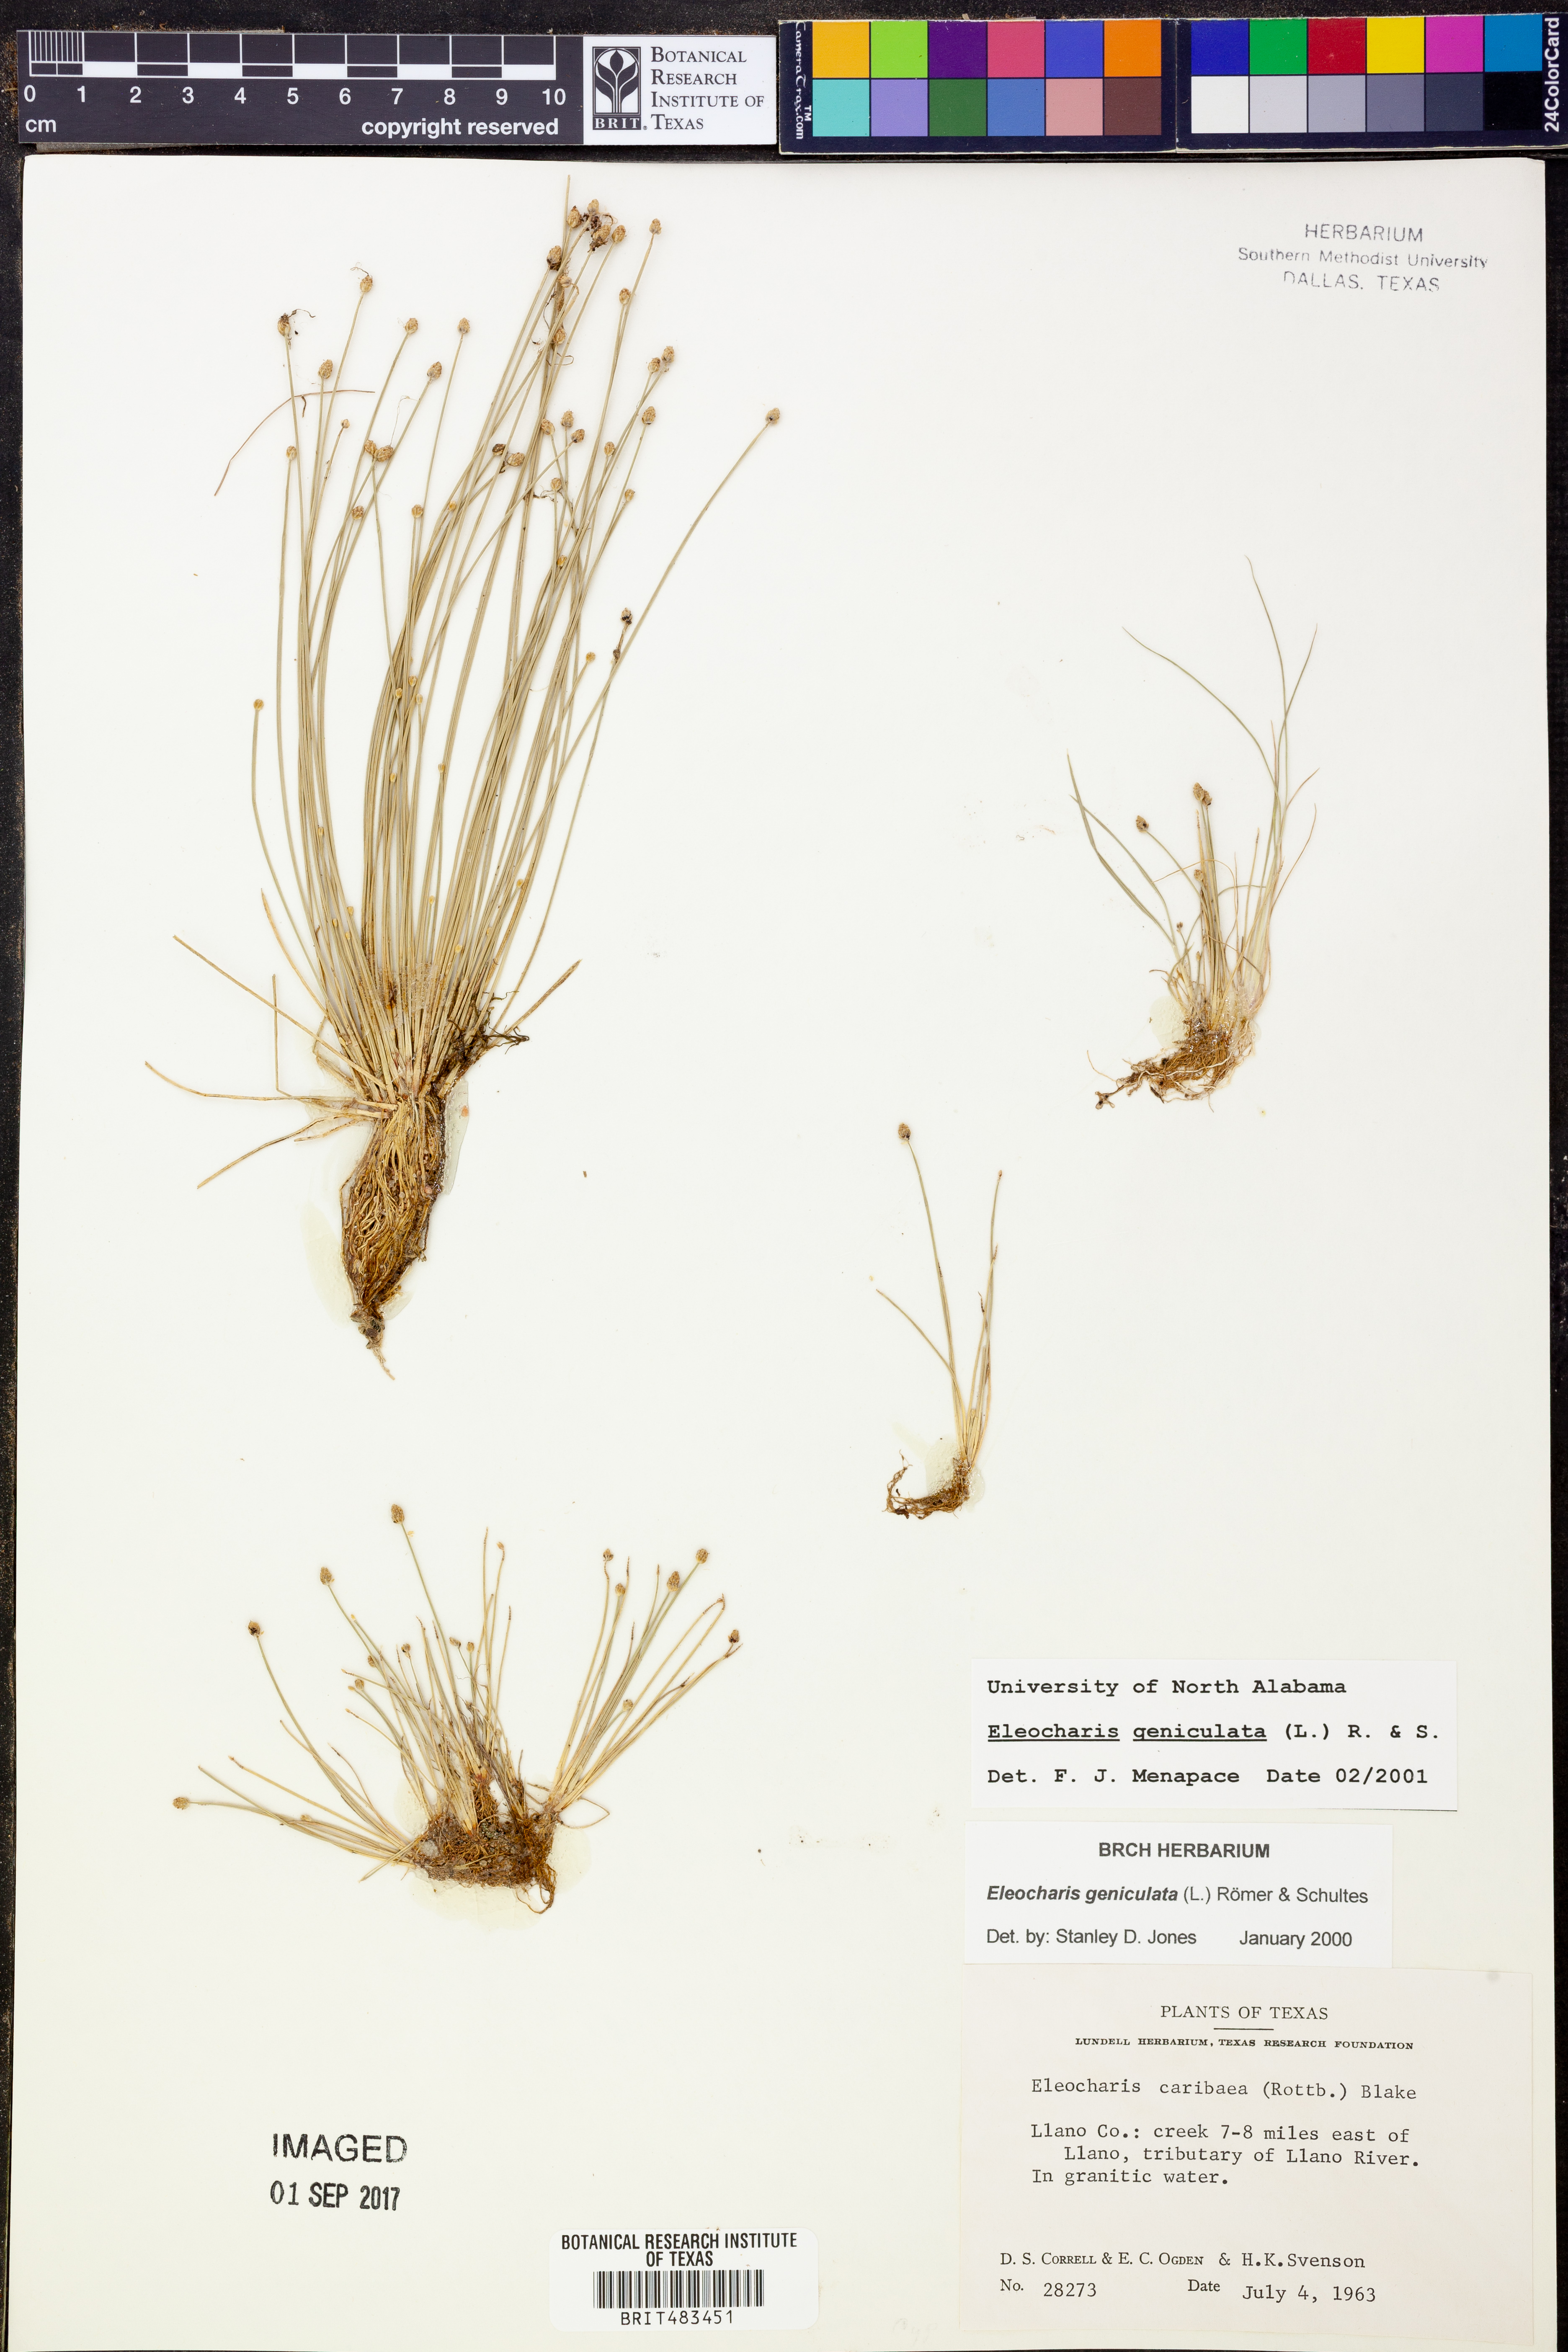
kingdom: Plantae
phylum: Tracheophyta
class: Liliopsida
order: Poales
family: Cyperaceae
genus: Eleocharis
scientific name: Eleocharis geniculata
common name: Canada spikesedge
